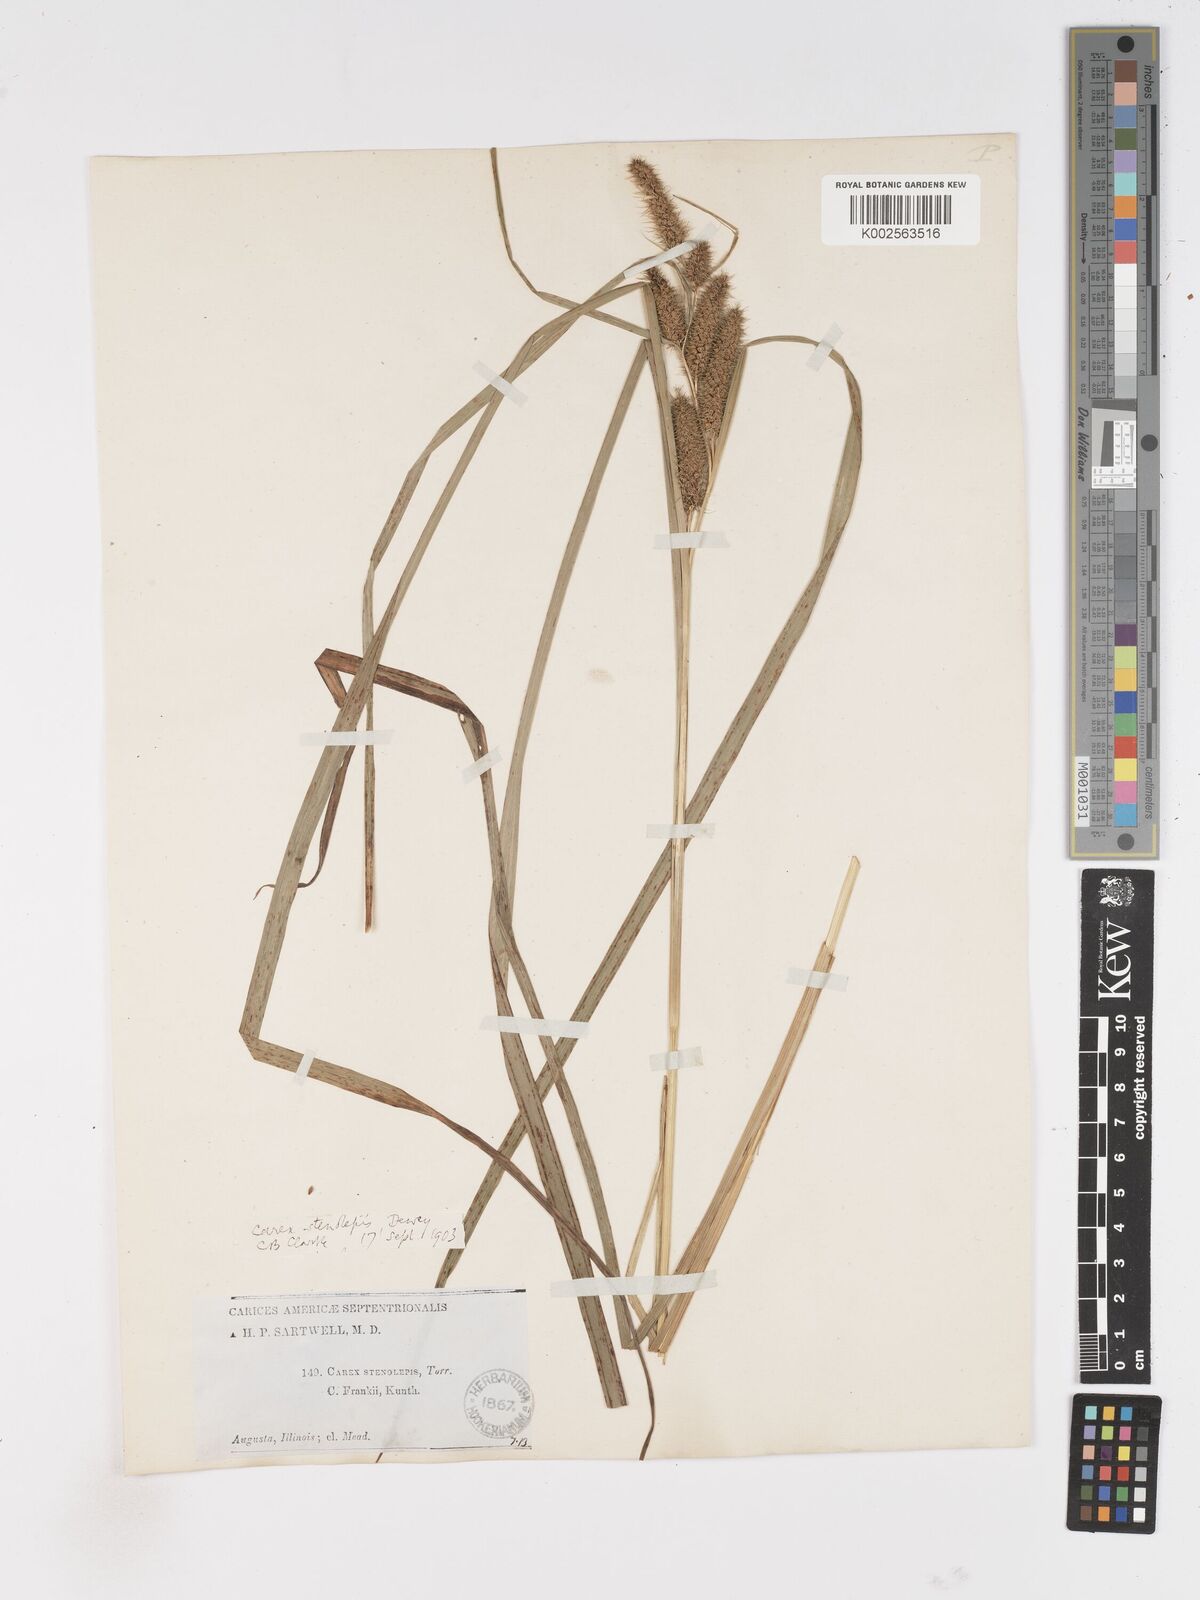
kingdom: Plantae
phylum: Tracheophyta
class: Liliopsida
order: Poales
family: Cyperaceae
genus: Carex
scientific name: Carex frankii
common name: Frank's sedge
